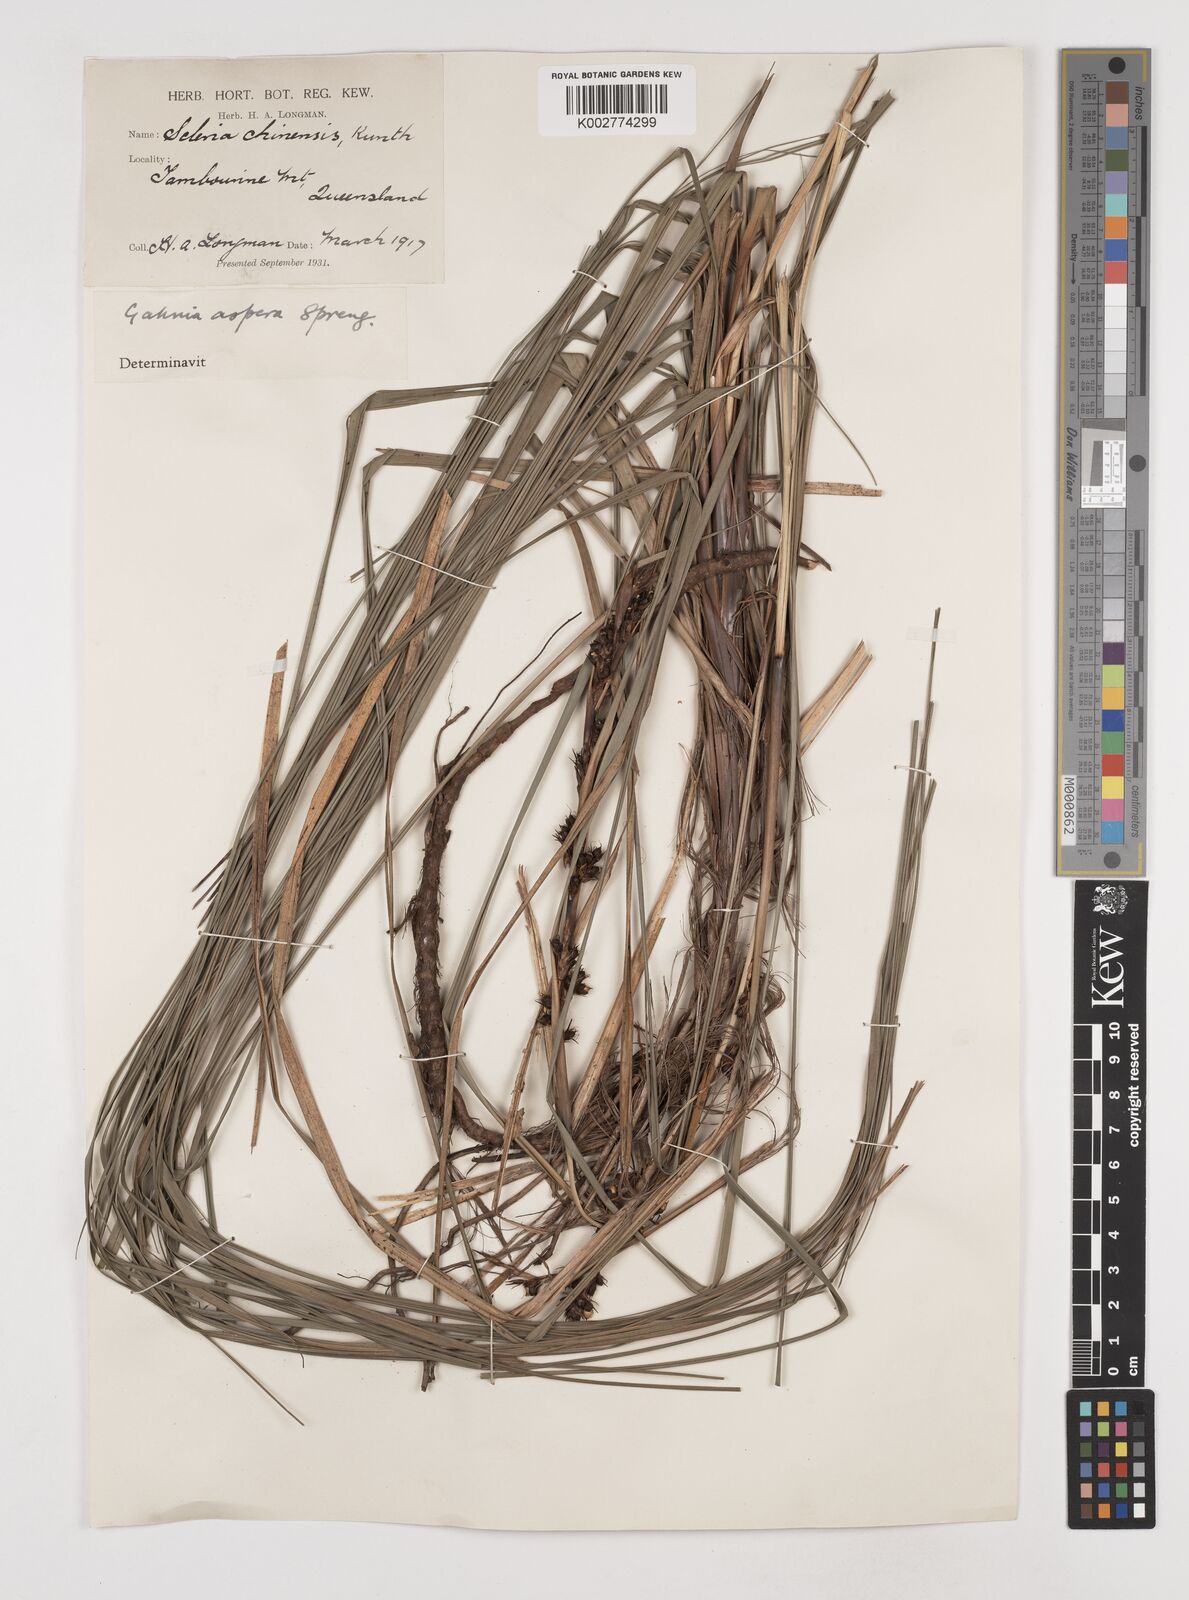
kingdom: Plantae
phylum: Tracheophyta
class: Liliopsida
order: Poales
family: Cyperaceae
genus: Gahnia
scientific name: Gahnia aspera
